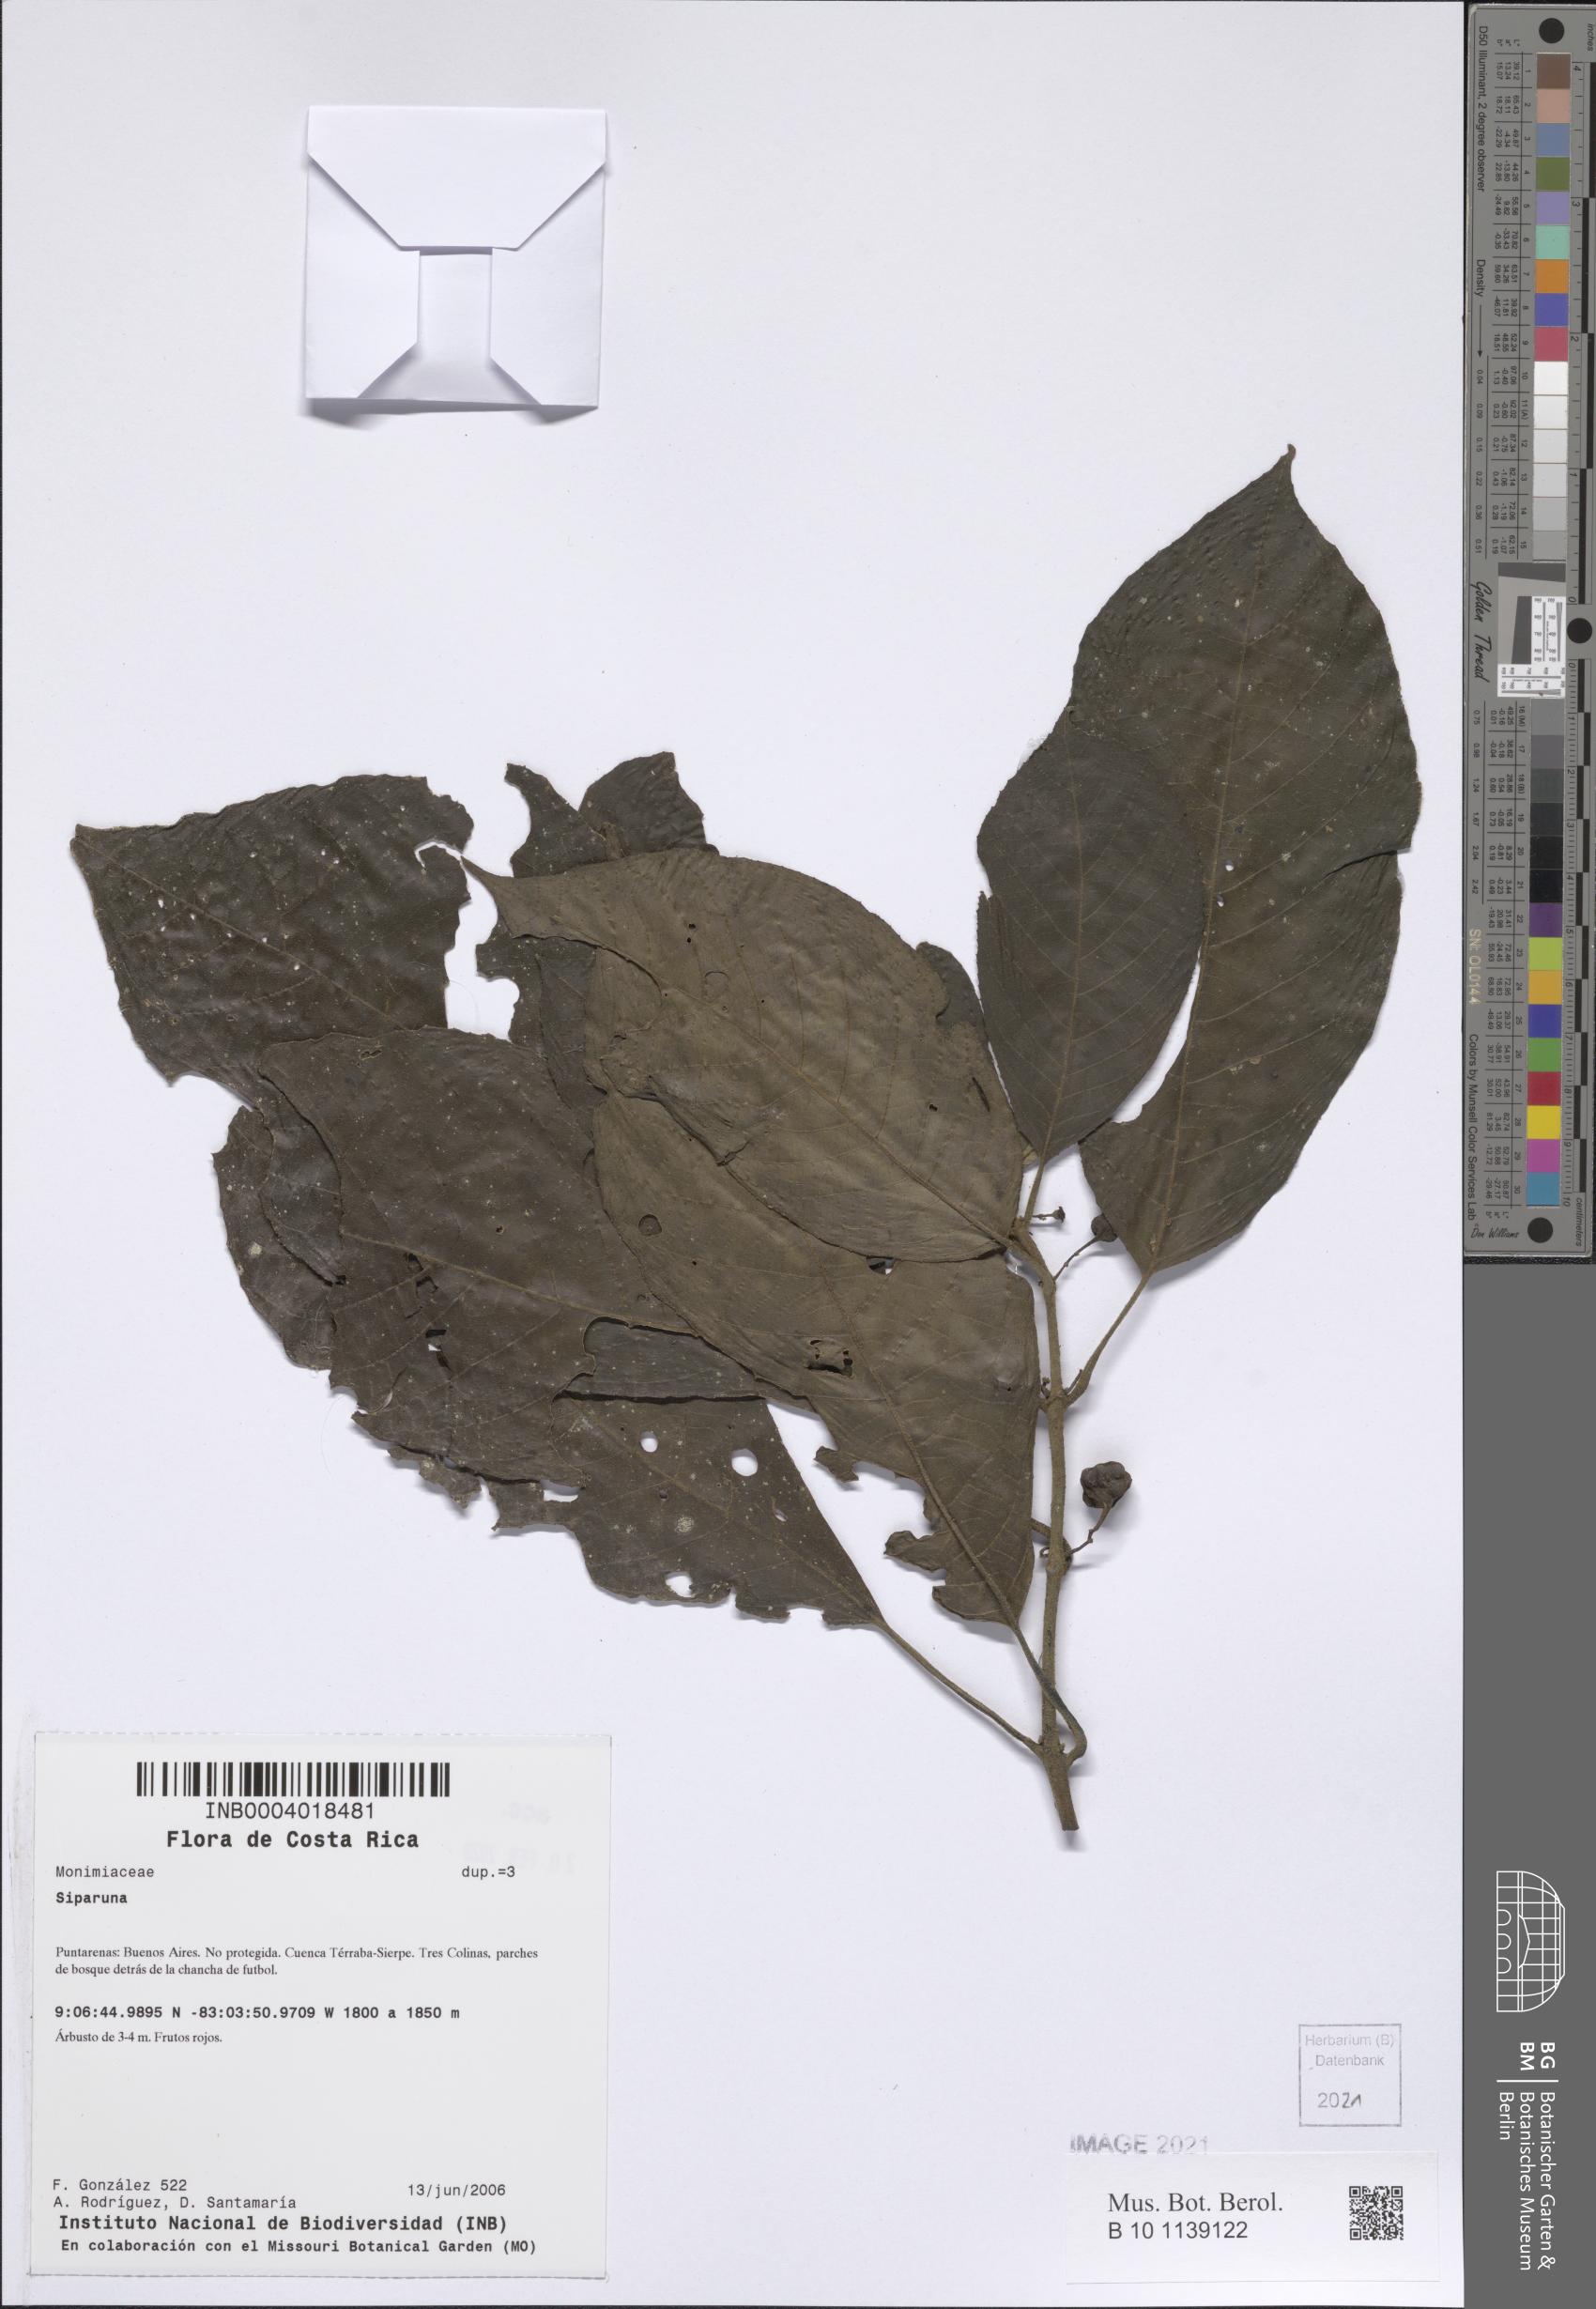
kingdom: Plantae
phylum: Tracheophyta
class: Magnoliopsida
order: Laurales
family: Siparunaceae
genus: Siparuna
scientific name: Siparuna
